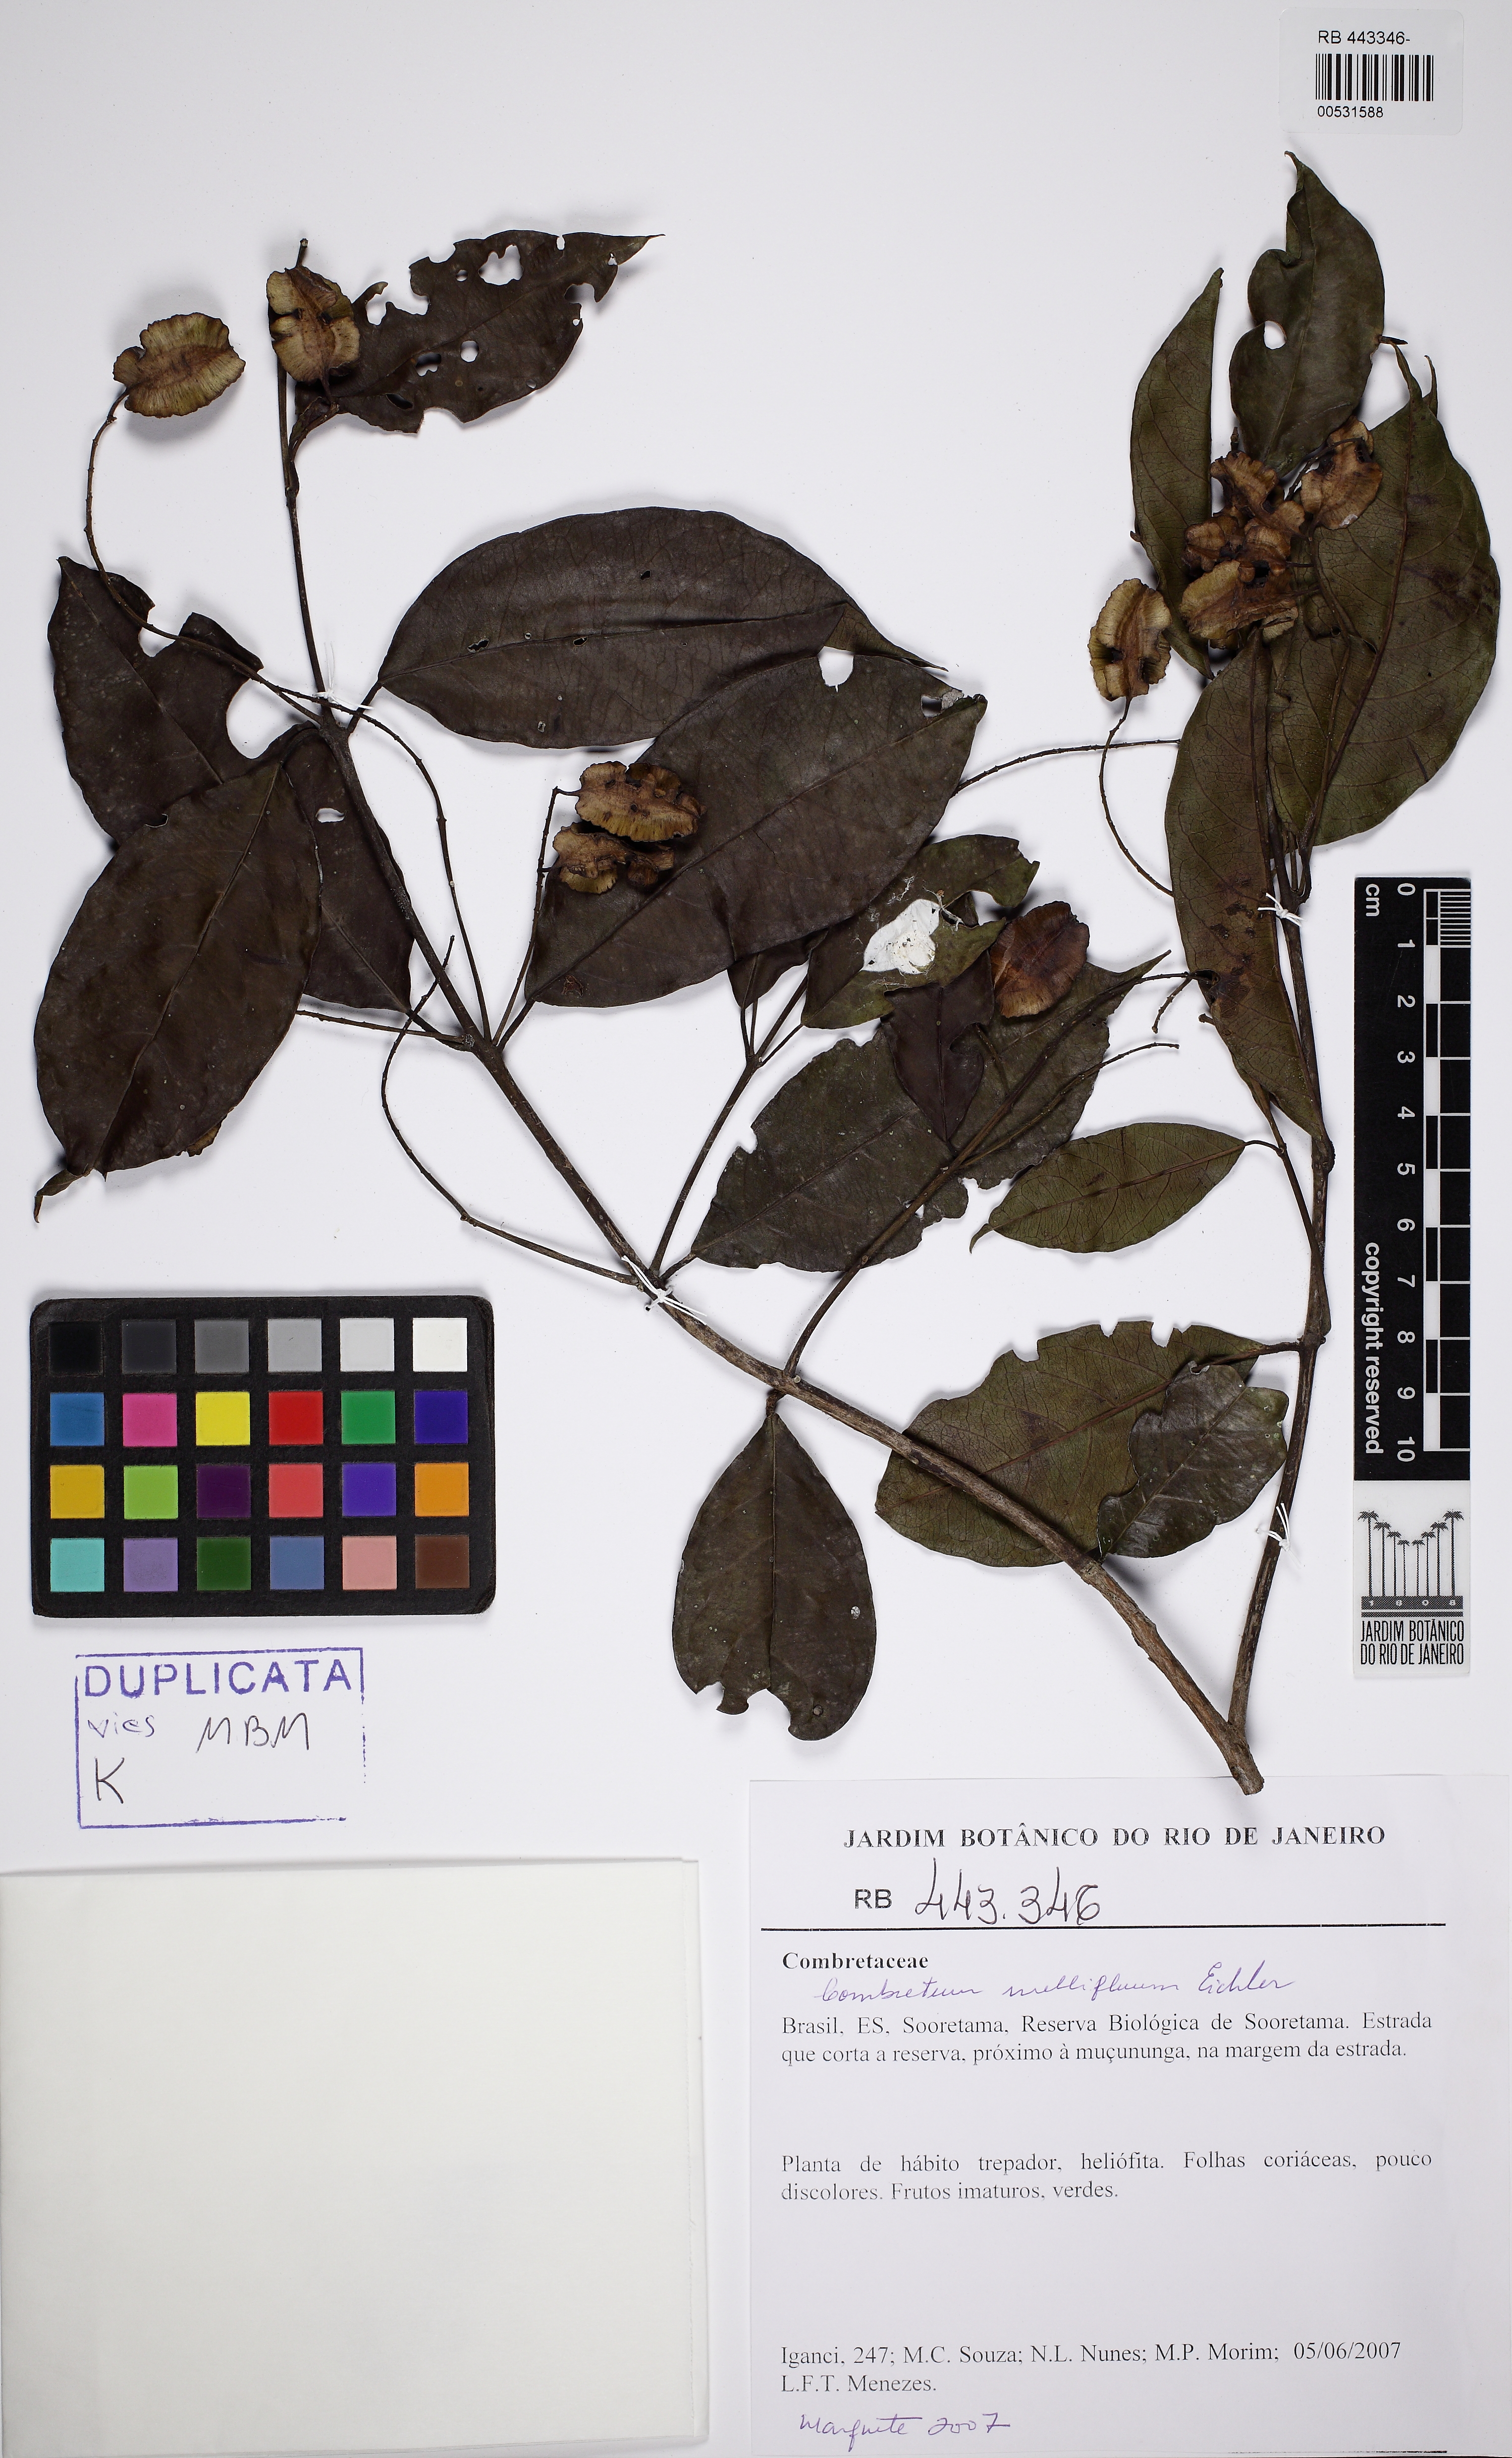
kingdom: Plantae
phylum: Tracheophyta
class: Magnoliopsida
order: Myrtales
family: Combretaceae
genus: Combretum
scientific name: Combretum mellifluum
